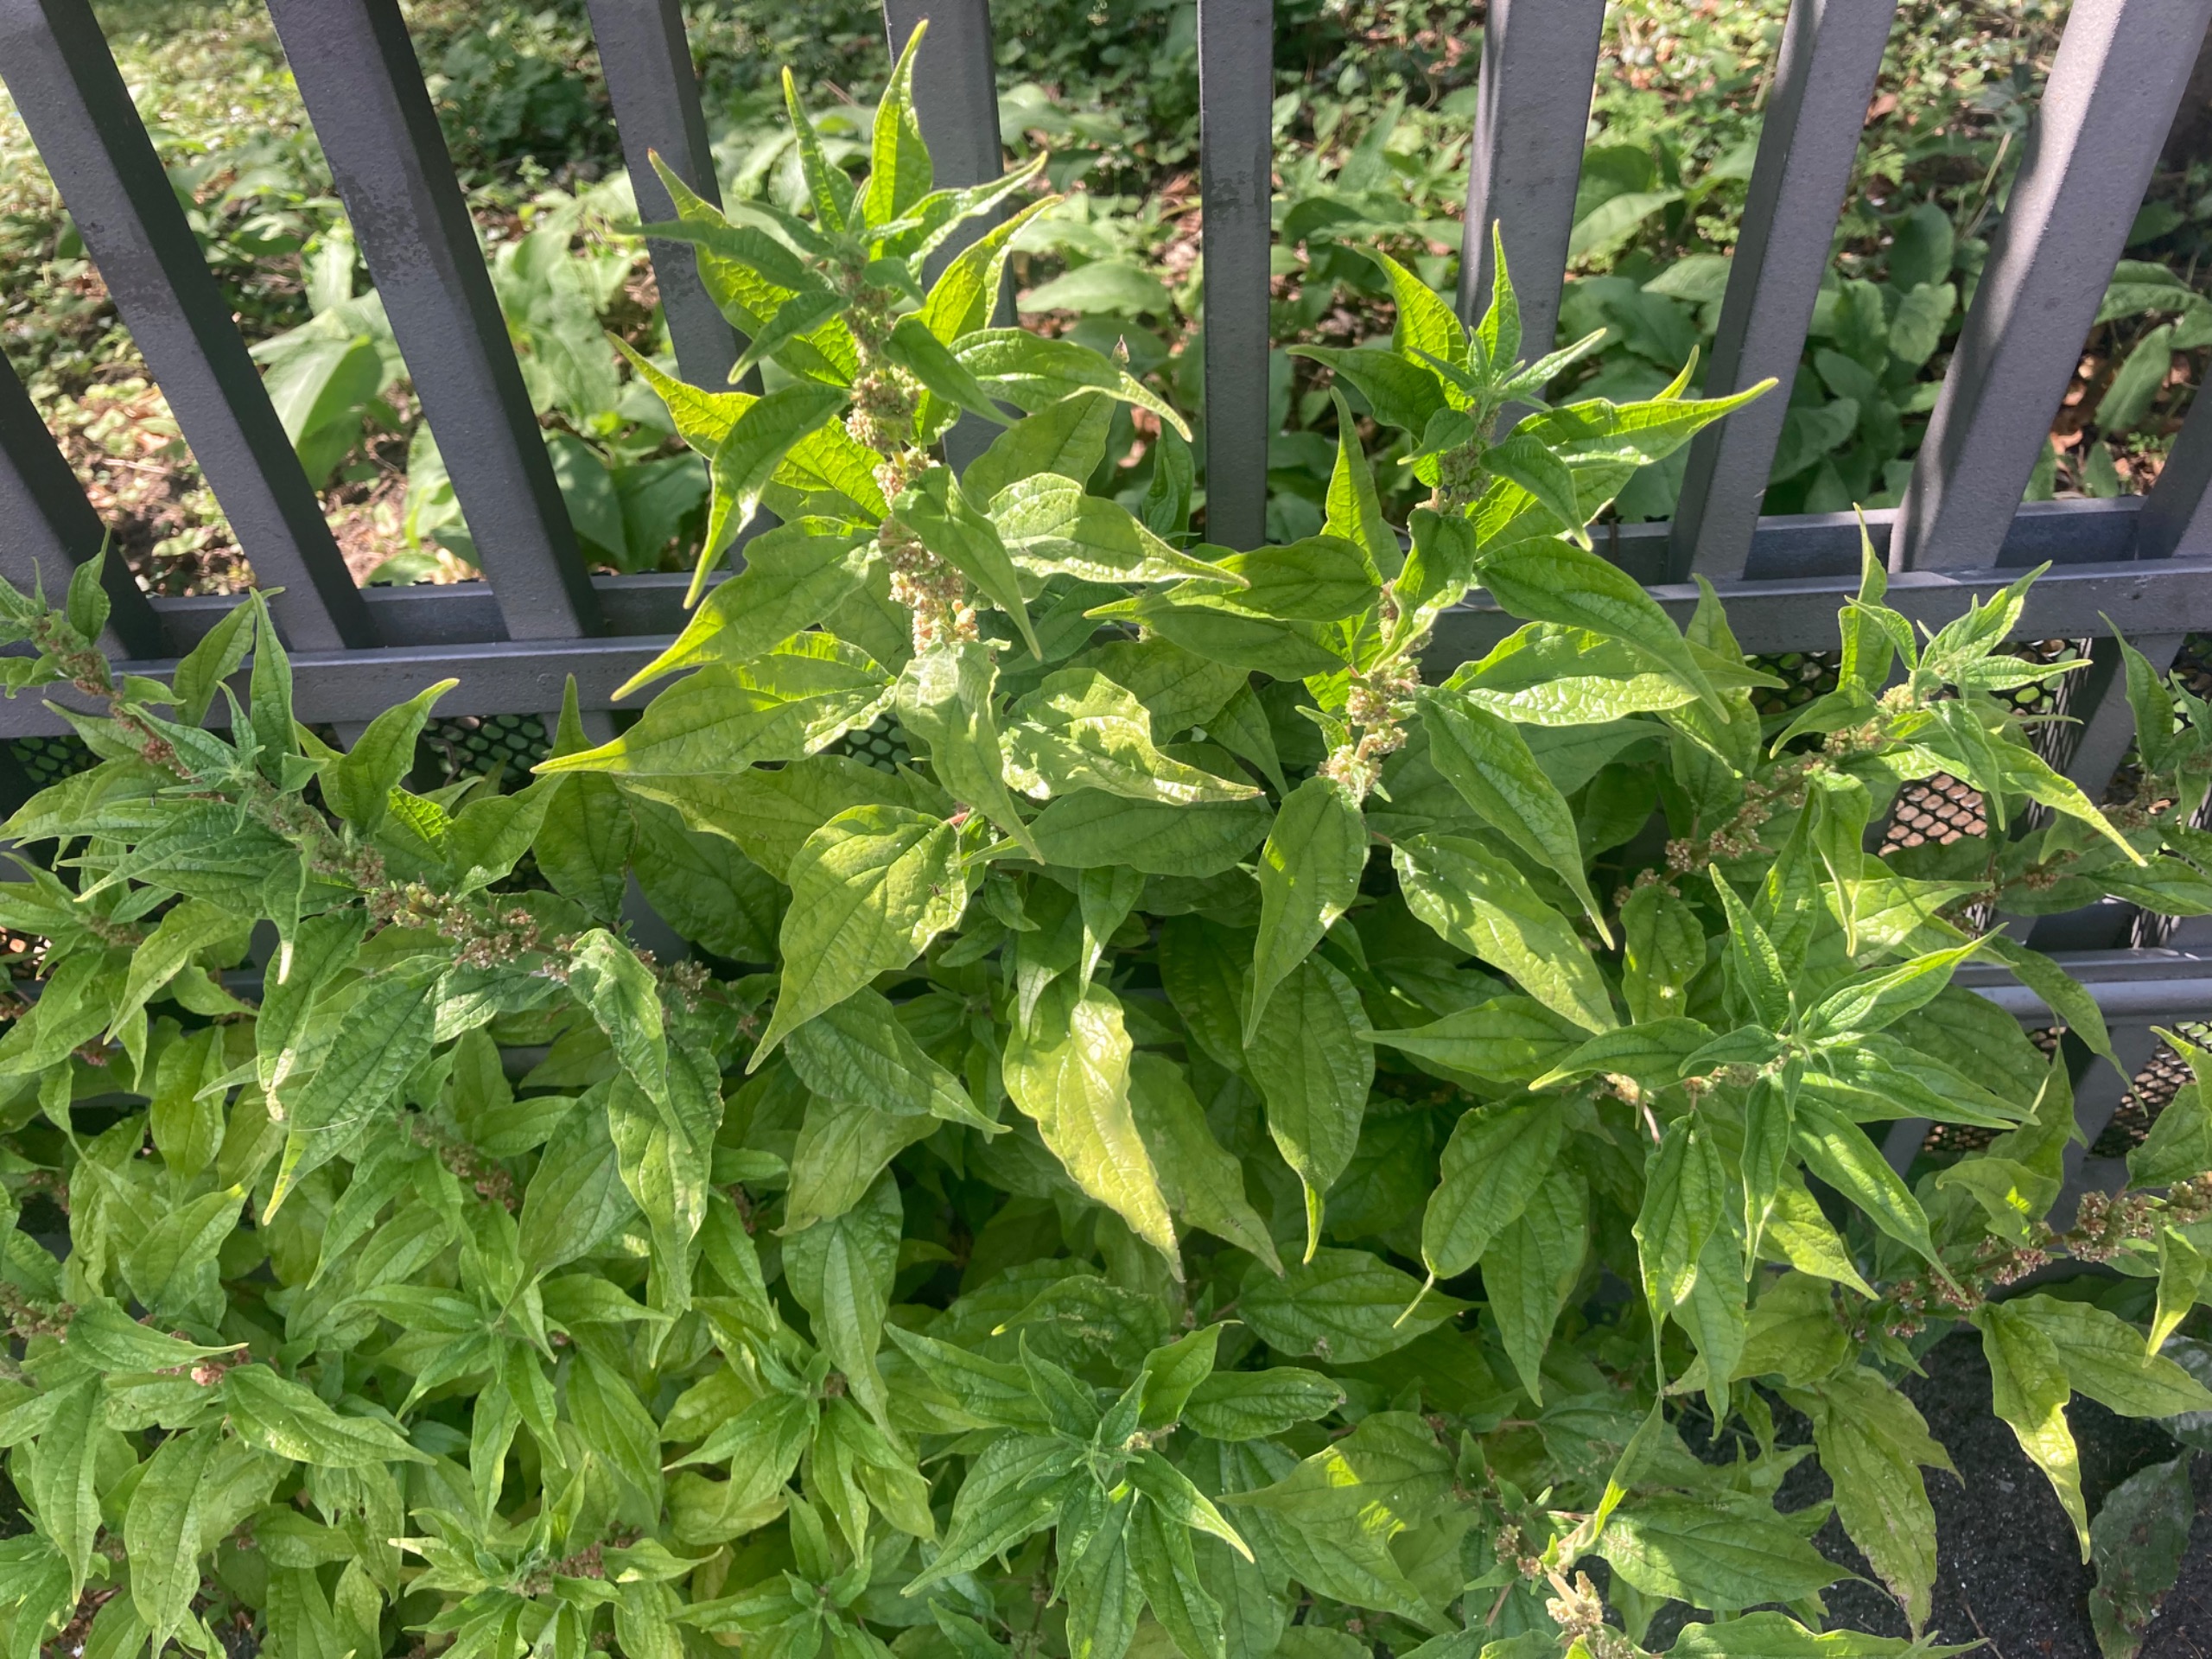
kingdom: Plantae
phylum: Tracheophyta
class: Magnoliopsida
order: Rosales
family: Urticaceae
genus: Parietaria
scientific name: Parietaria officinalis
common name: Almindelig springknap
